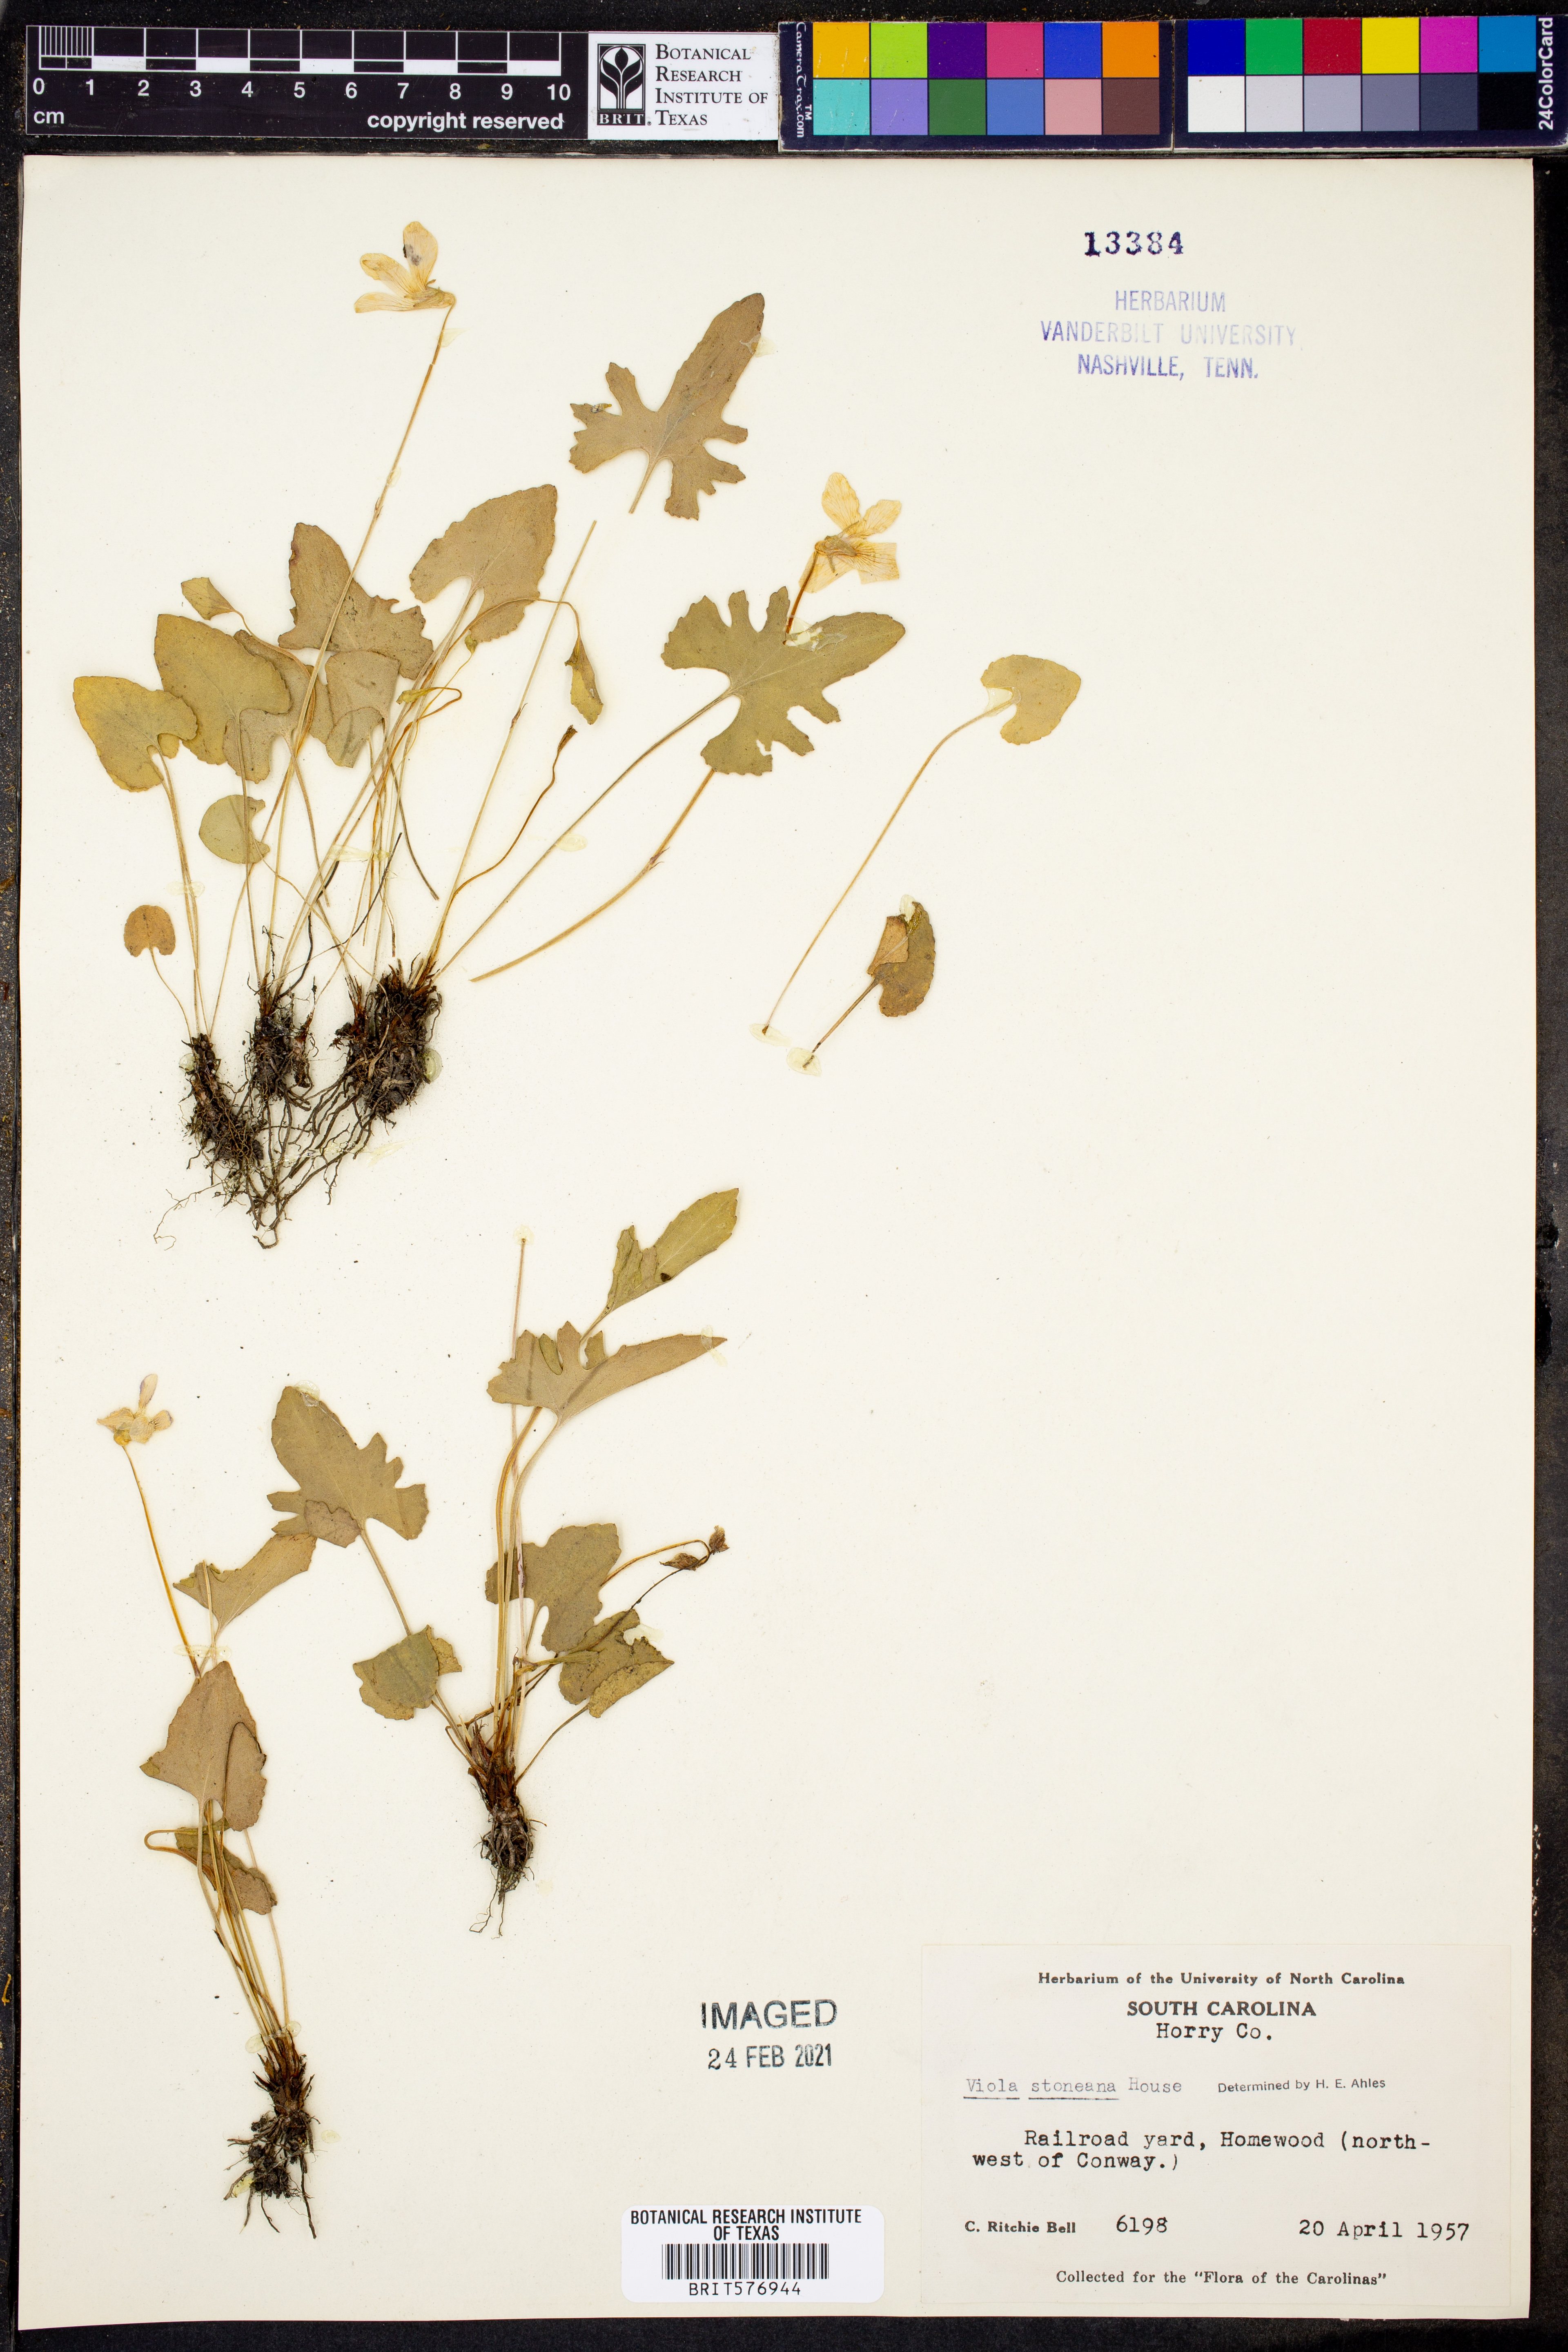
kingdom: Plantae
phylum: Tracheophyta
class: Magnoliopsida
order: Malpighiales
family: Violaceae
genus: Viola
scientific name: Viola stoneana
